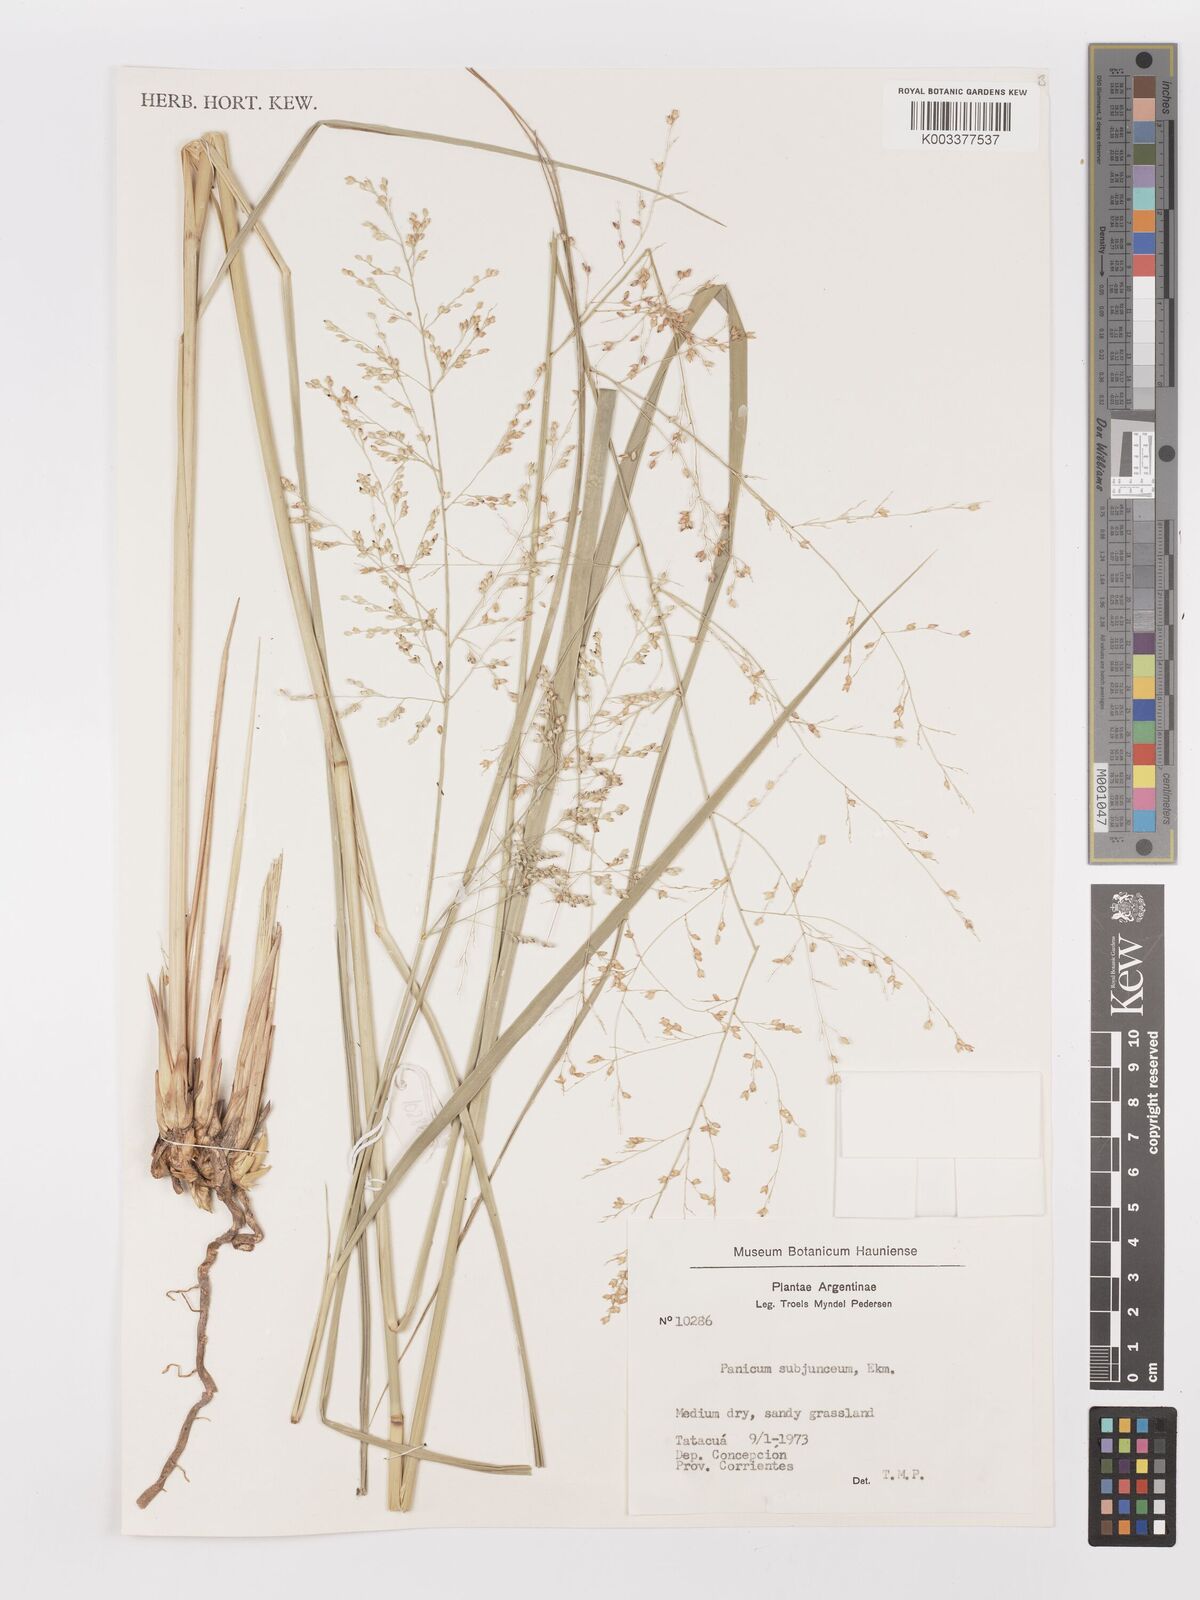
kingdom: Plantae
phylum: Tracheophyta
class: Liliopsida
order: Poales
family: Poaceae
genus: Panicum
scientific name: Panicum glabripes
